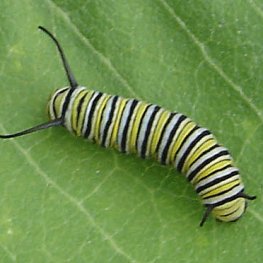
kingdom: Animalia
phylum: Arthropoda
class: Insecta
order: Lepidoptera
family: Nymphalidae
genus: Danaus
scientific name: Danaus plexippus
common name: Monarch
